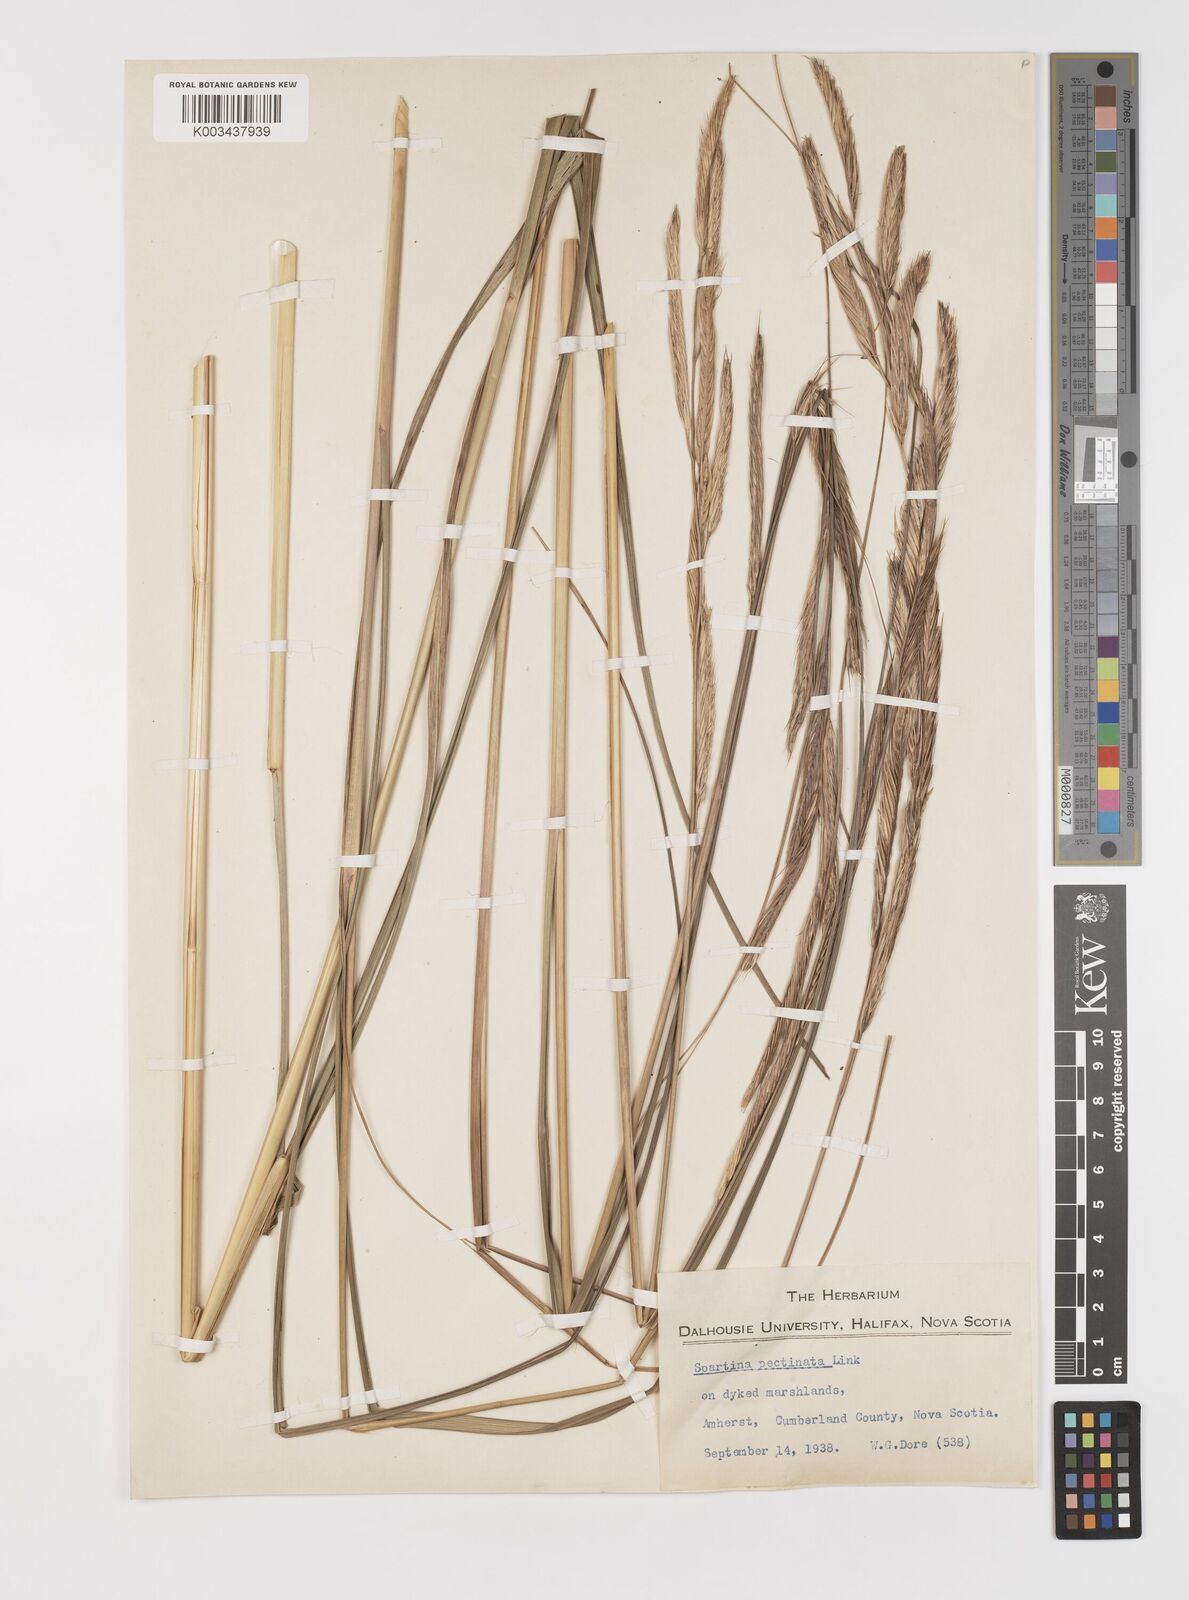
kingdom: Plantae
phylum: Tracheophyta
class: Liliopsida
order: Poales
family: Poaceae
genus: Sporobolus
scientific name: Sporobolus michauxianus
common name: Freshwater cordgrass
